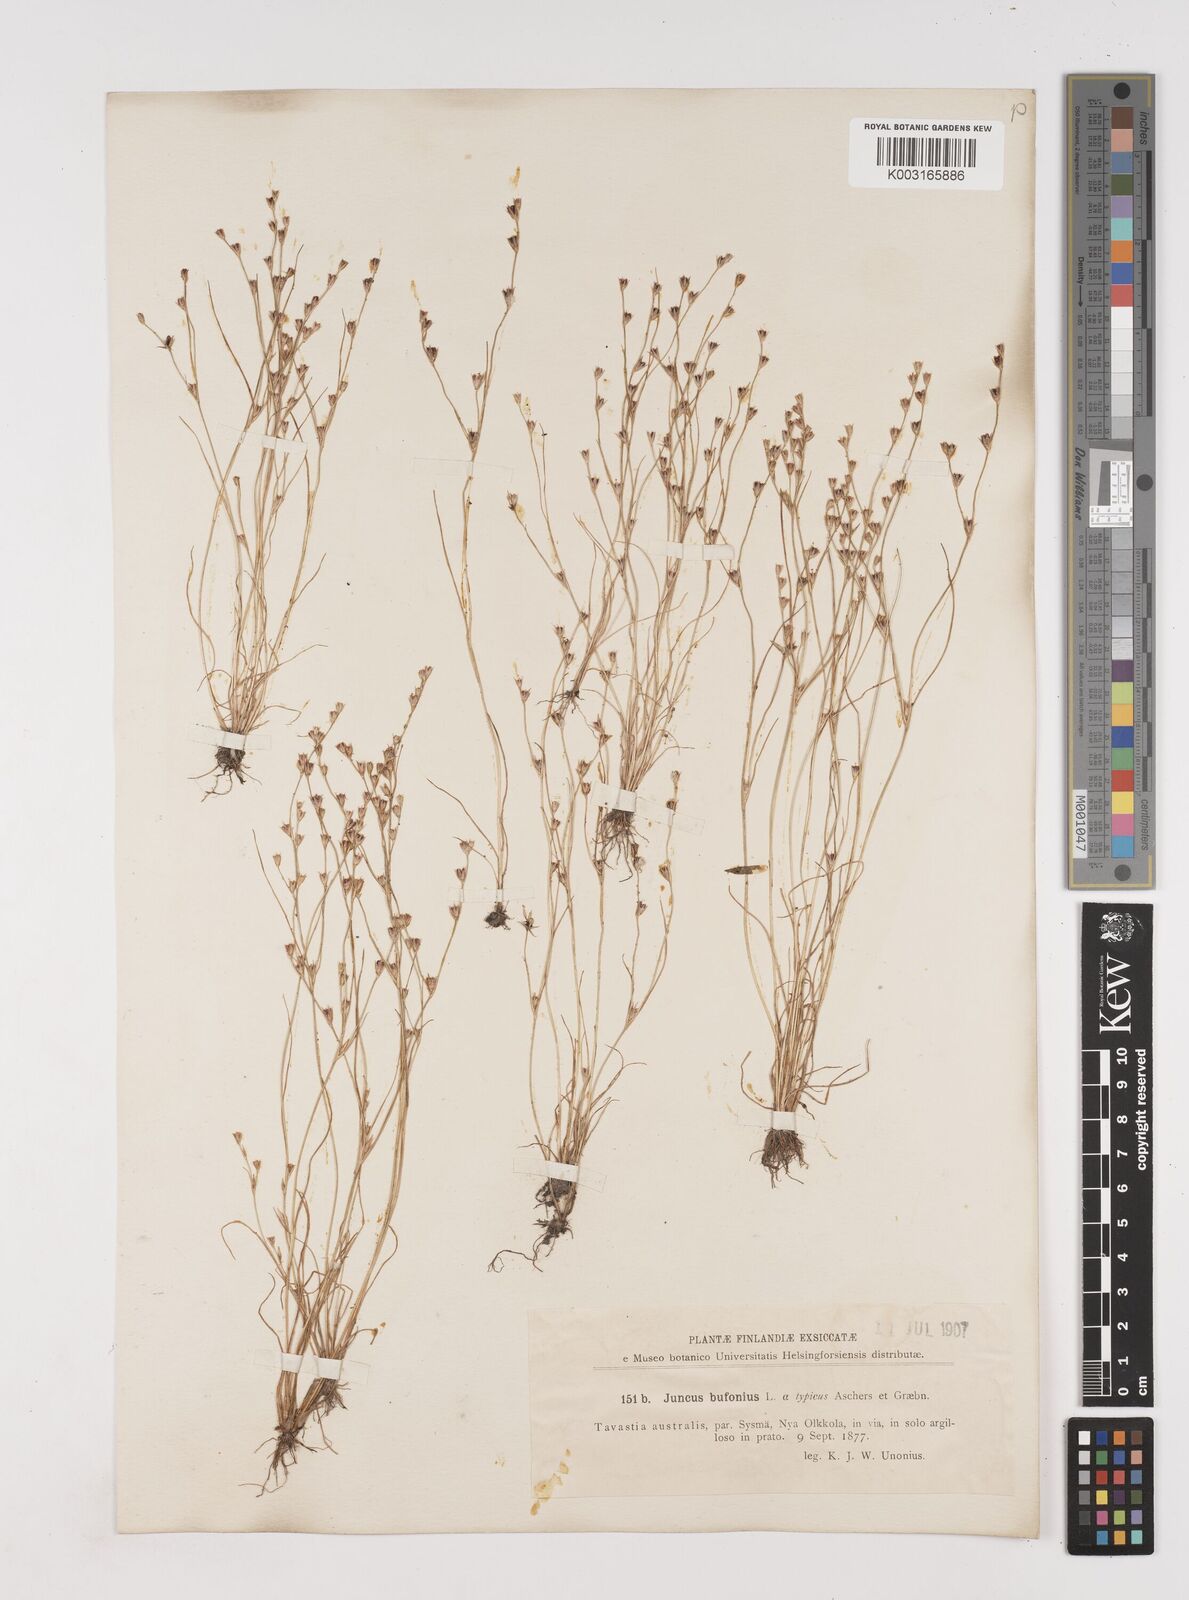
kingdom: Plantae
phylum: Tracheophyta
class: Liliopsida
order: Poales
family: Juncaceae
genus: Juncus
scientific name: Juncus bufonius
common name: Toad rush
